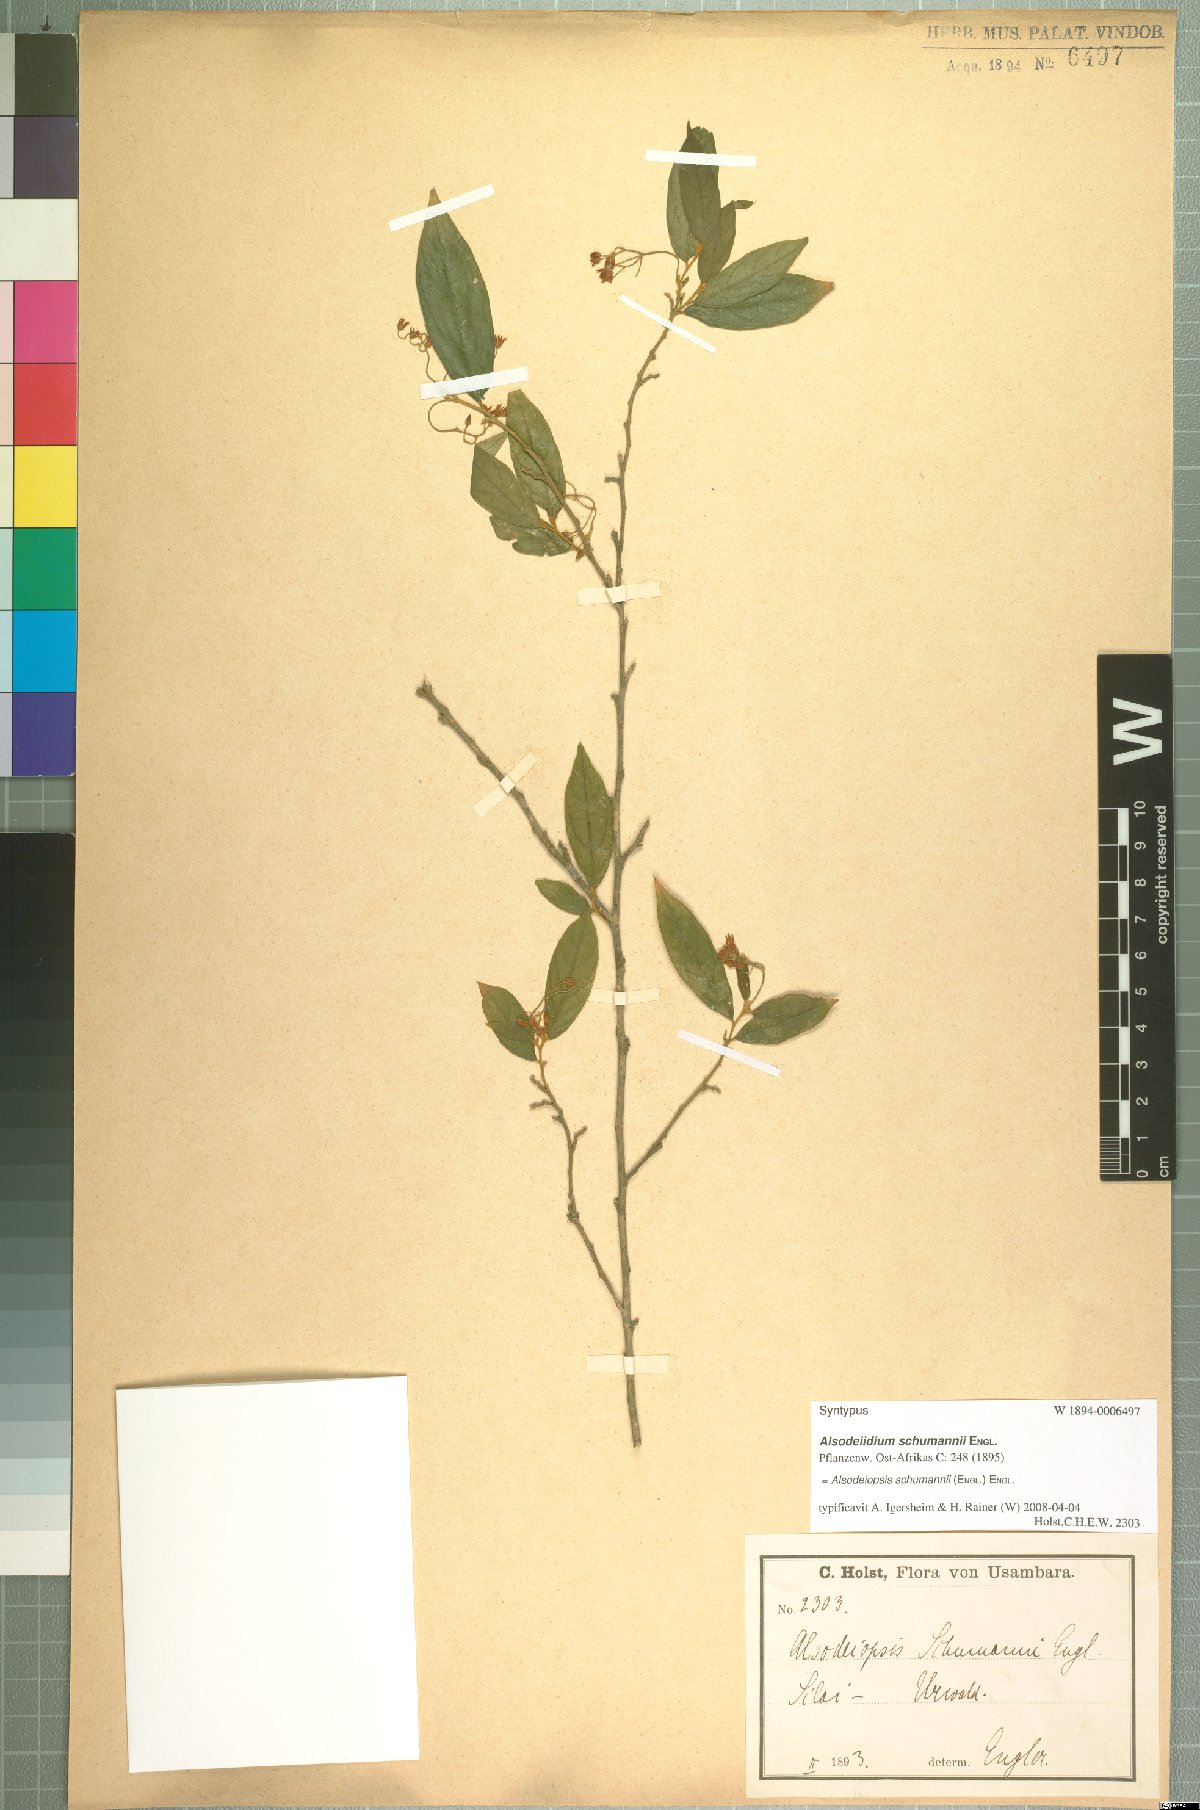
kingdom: Plantae
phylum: Tracheophyta
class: Magnoliopsida
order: Icacinales
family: Icacinaceae
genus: Alsodeiopsis
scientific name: Alsodeiopsis schumannii
